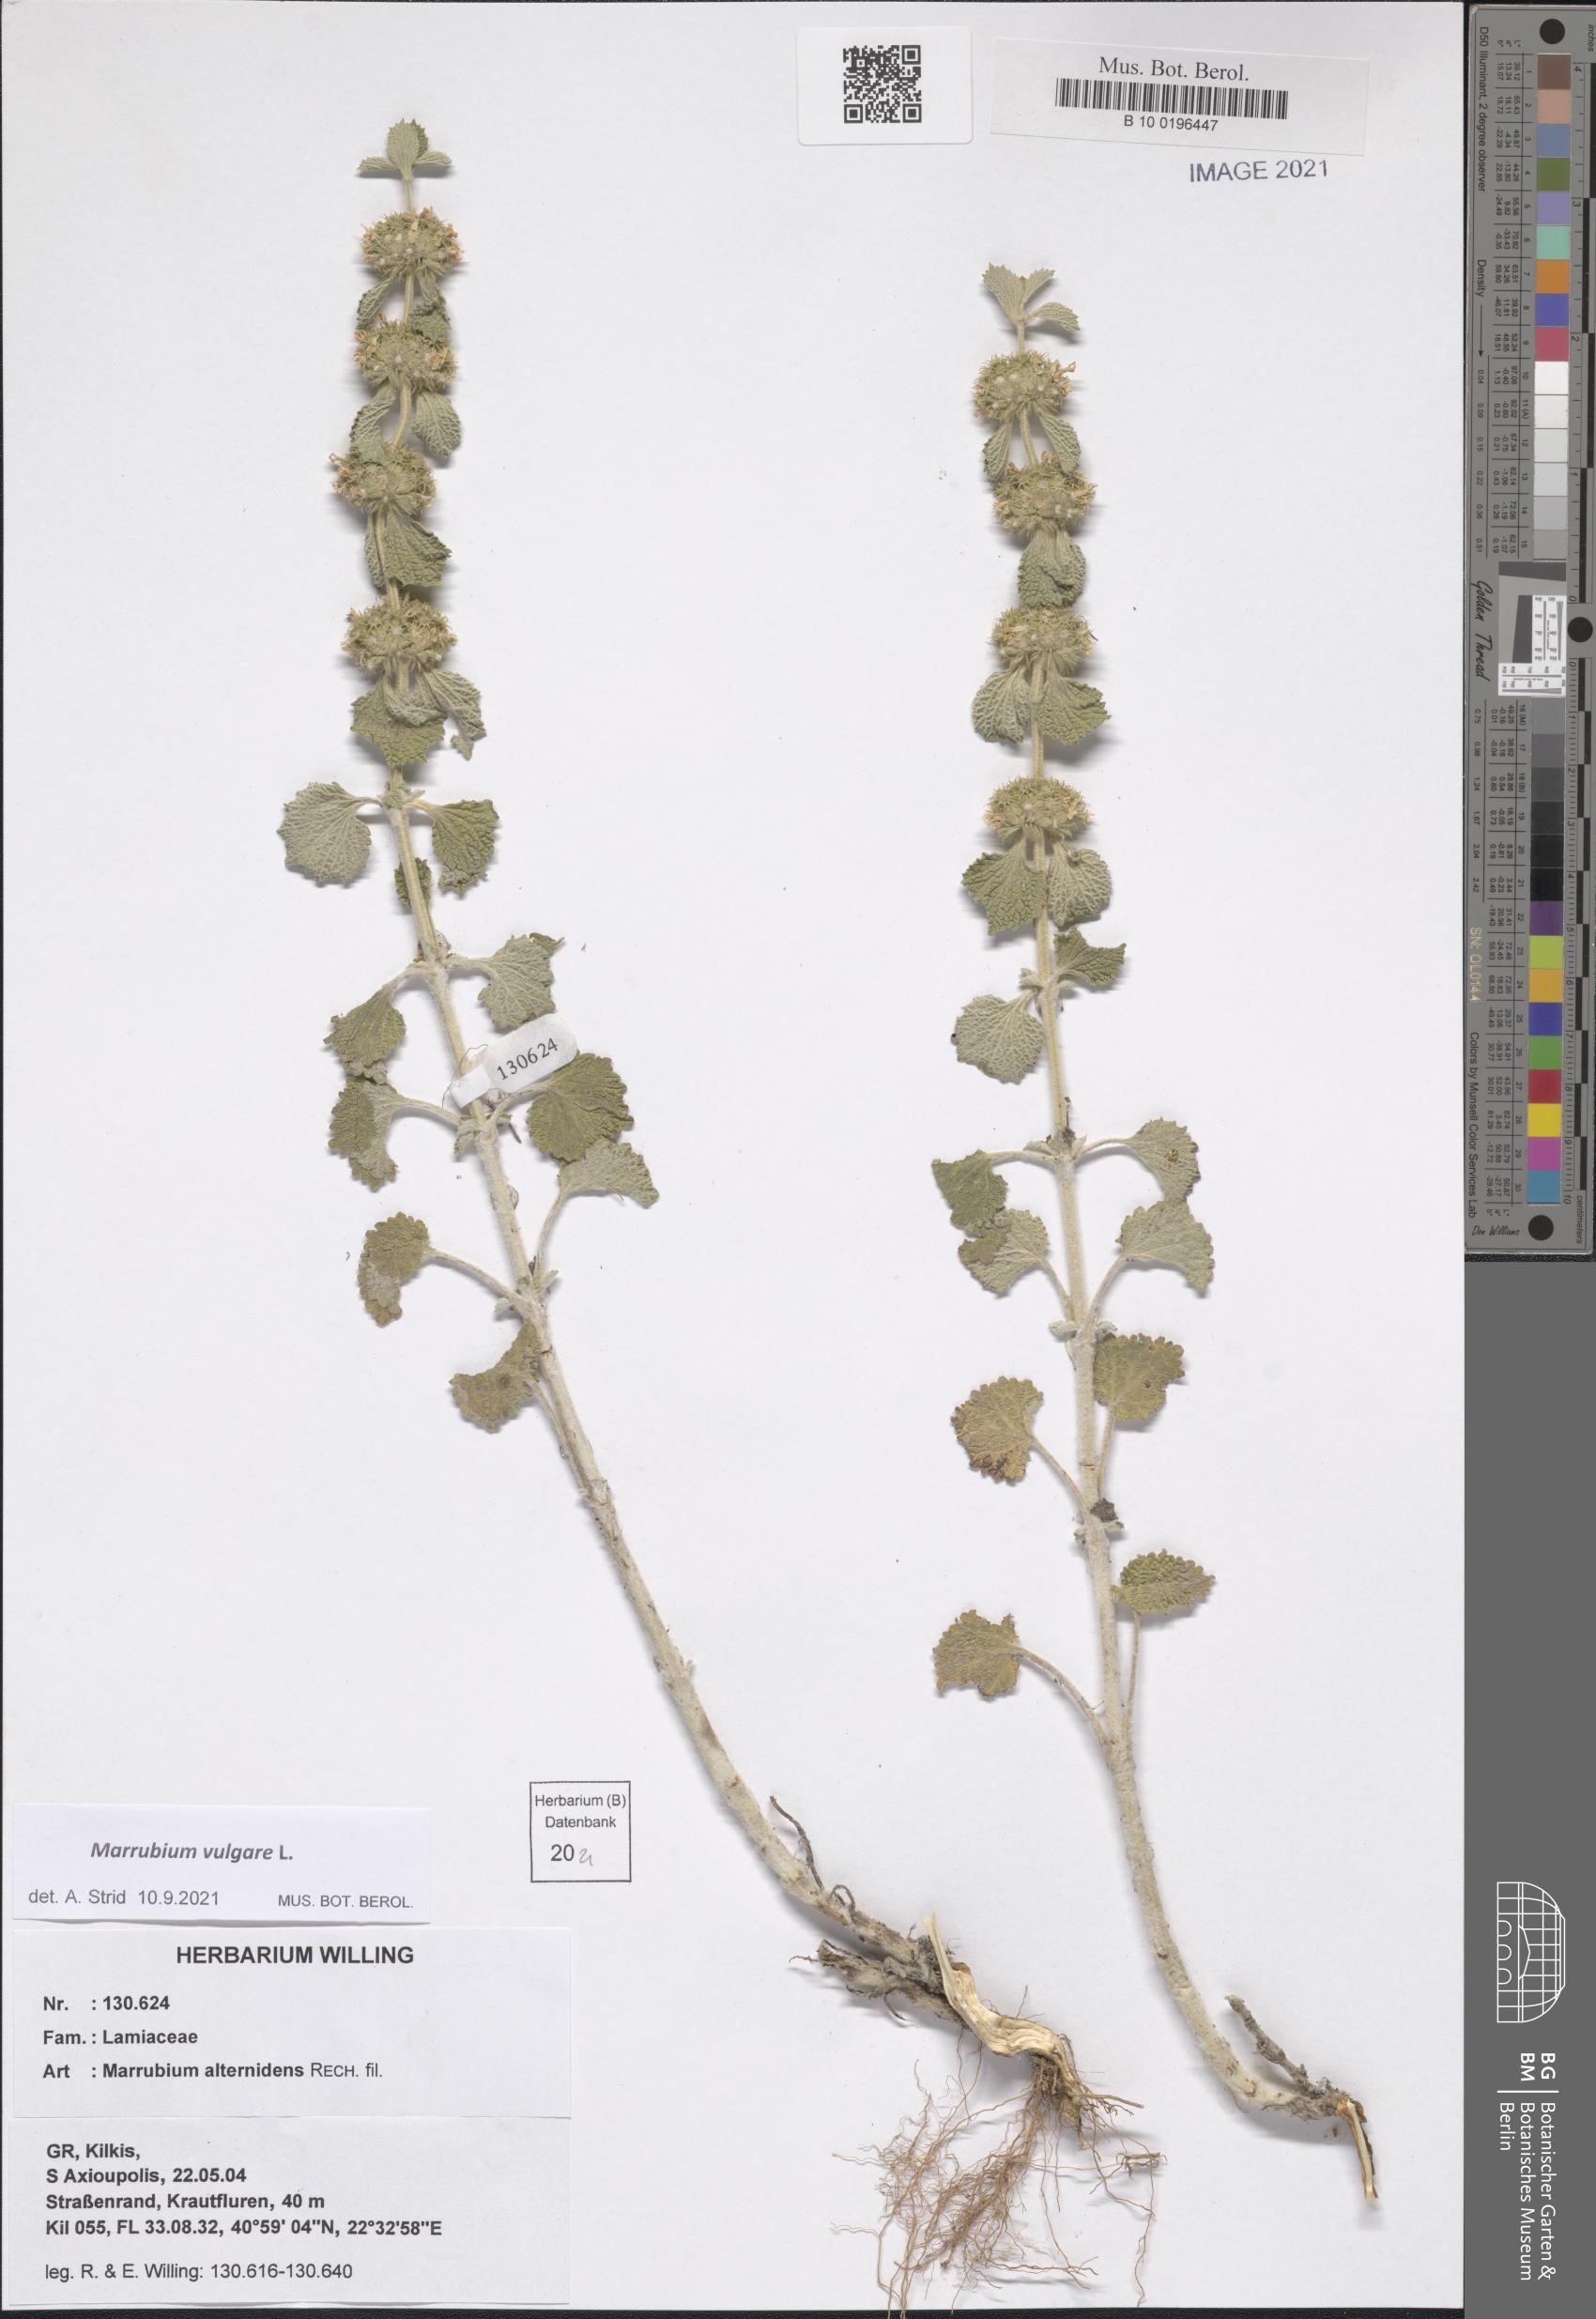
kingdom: Plantae
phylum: Tracheophyta
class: Magnoliopsida
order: Lamiales
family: Lamiaceae
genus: Marrubium
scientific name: Marrubium vulgare
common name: Horehound
